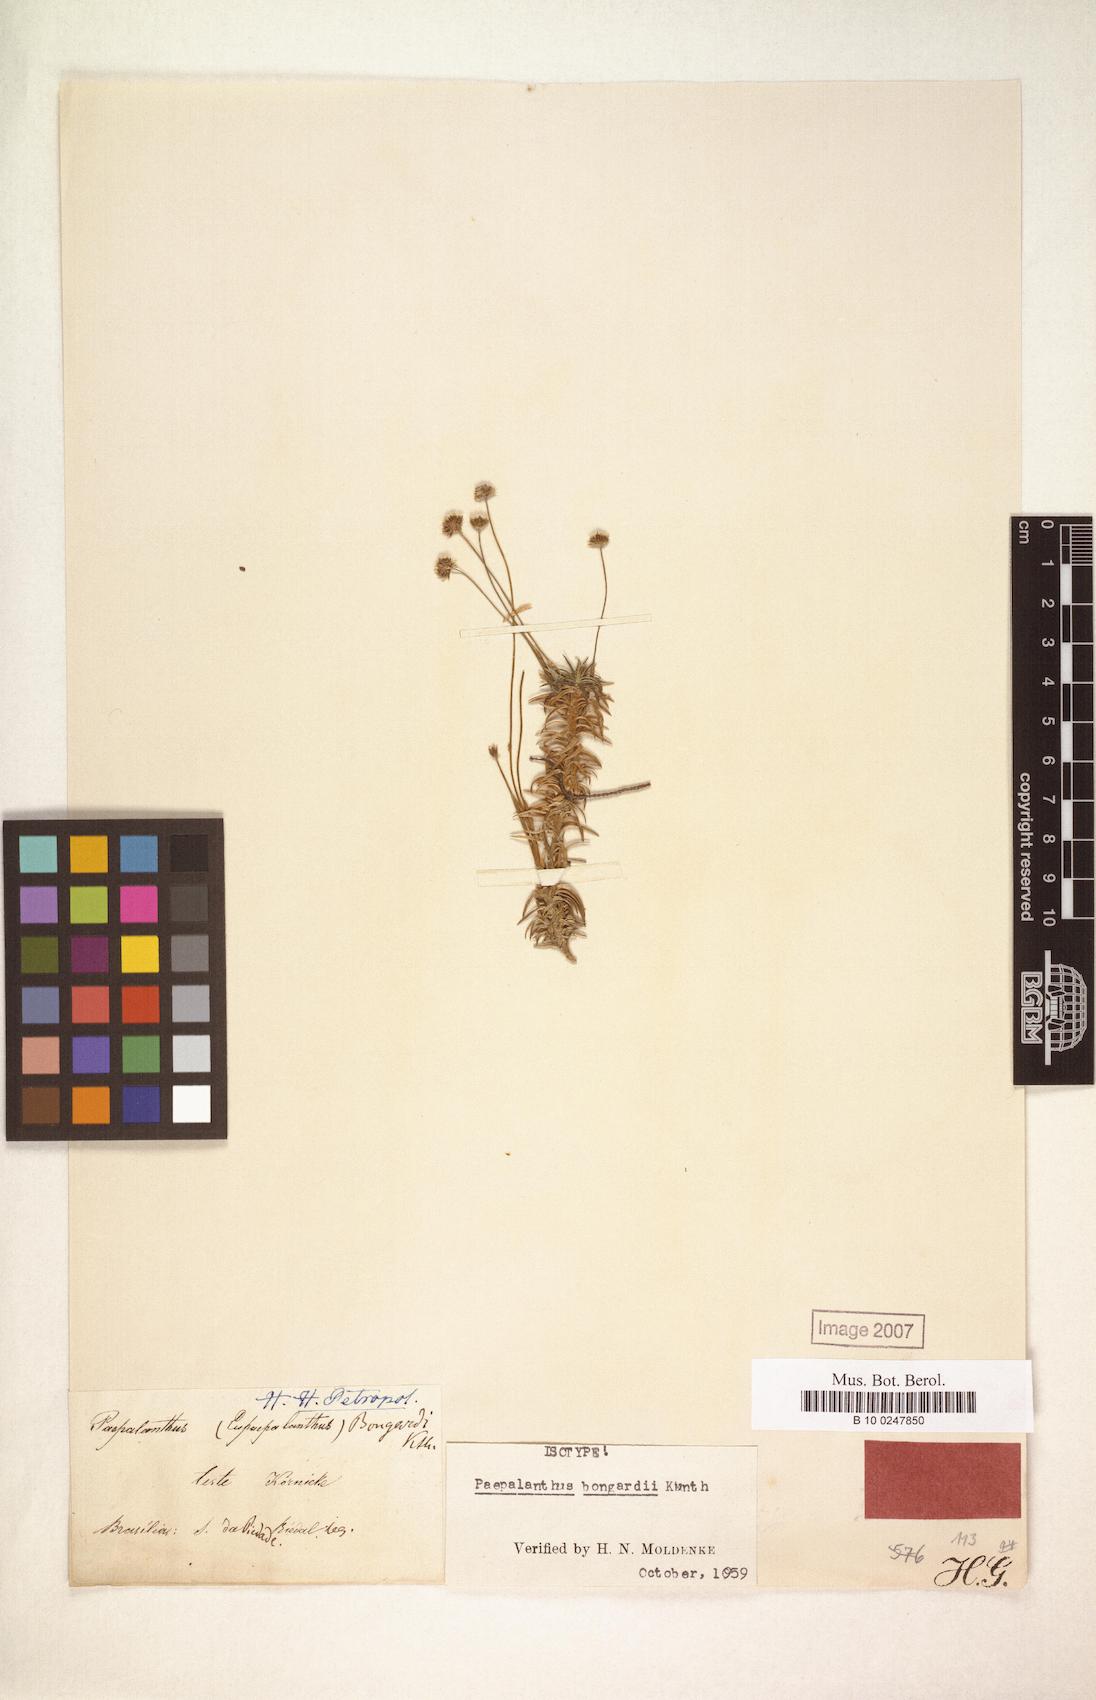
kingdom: Plantae
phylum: Tracheophyta
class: Liliopsida
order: Poales
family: Eriocaulaceae
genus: Paepalanthus
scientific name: Paepalanthus bongardii
